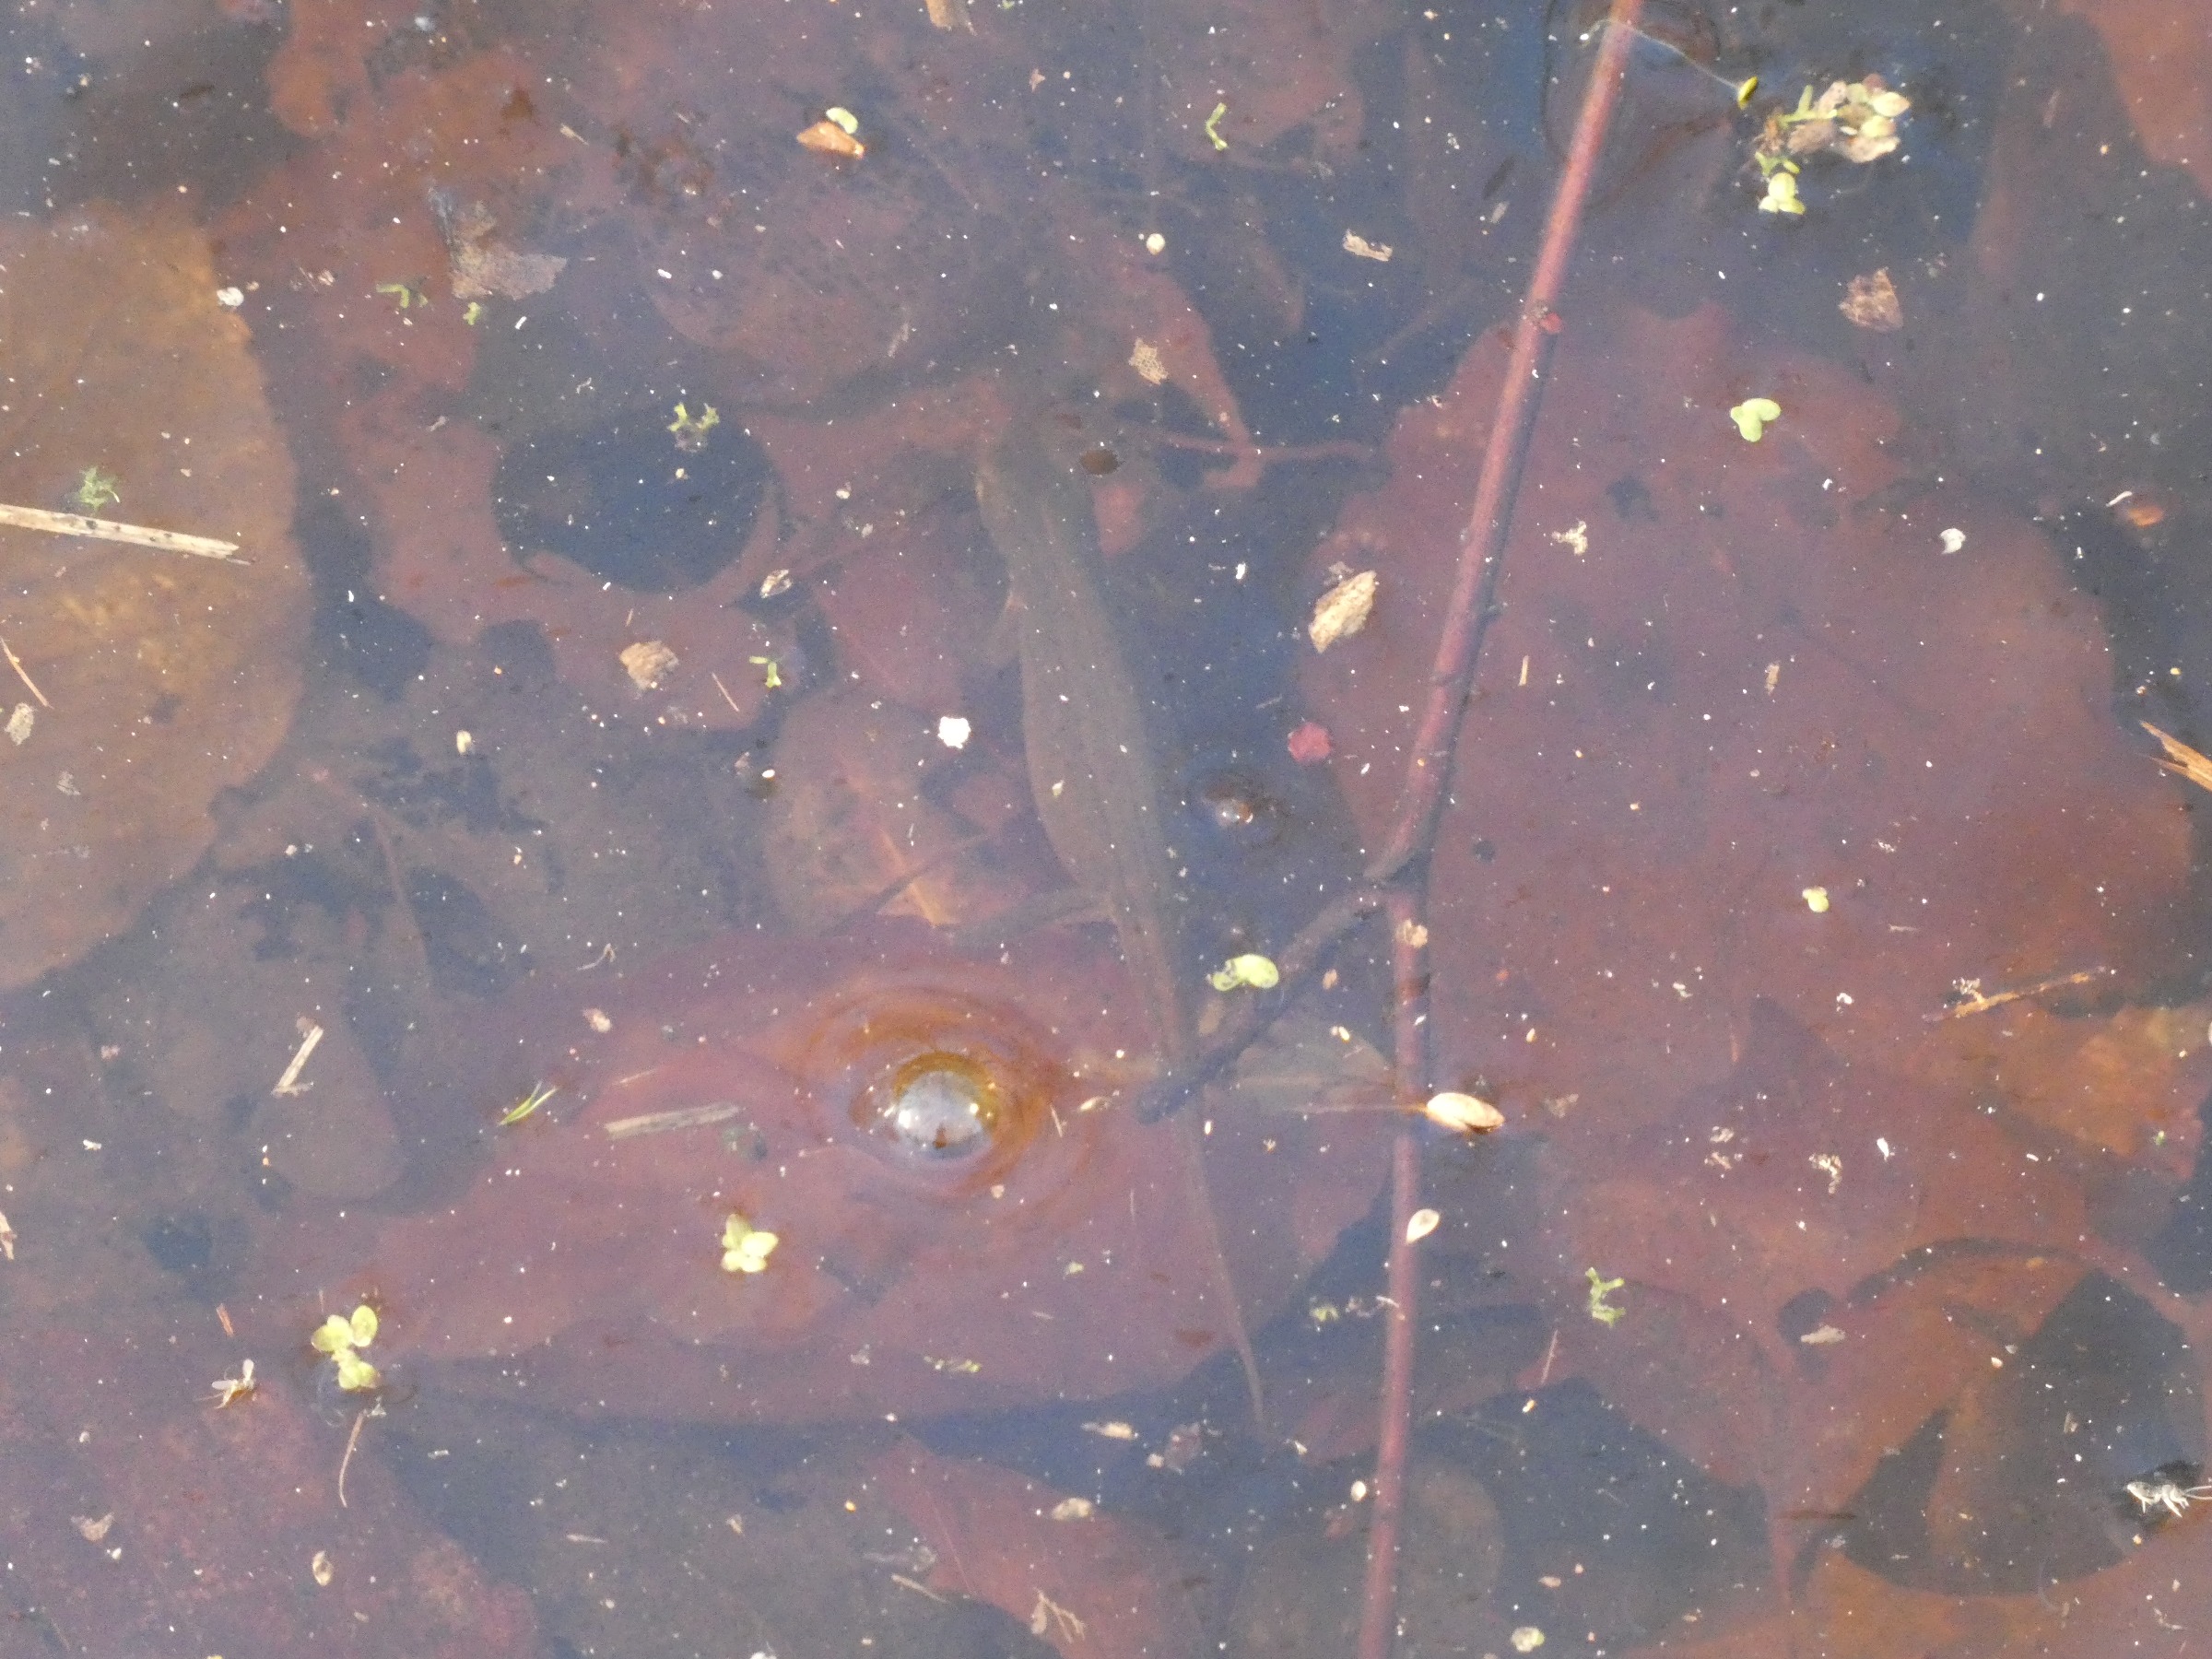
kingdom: Animalia
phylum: Chordata
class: Amphibia
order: Caudata
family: Salamandridae
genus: Lissotriton
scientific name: Lissotriton vulgaris
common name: Lille vandsalamander
